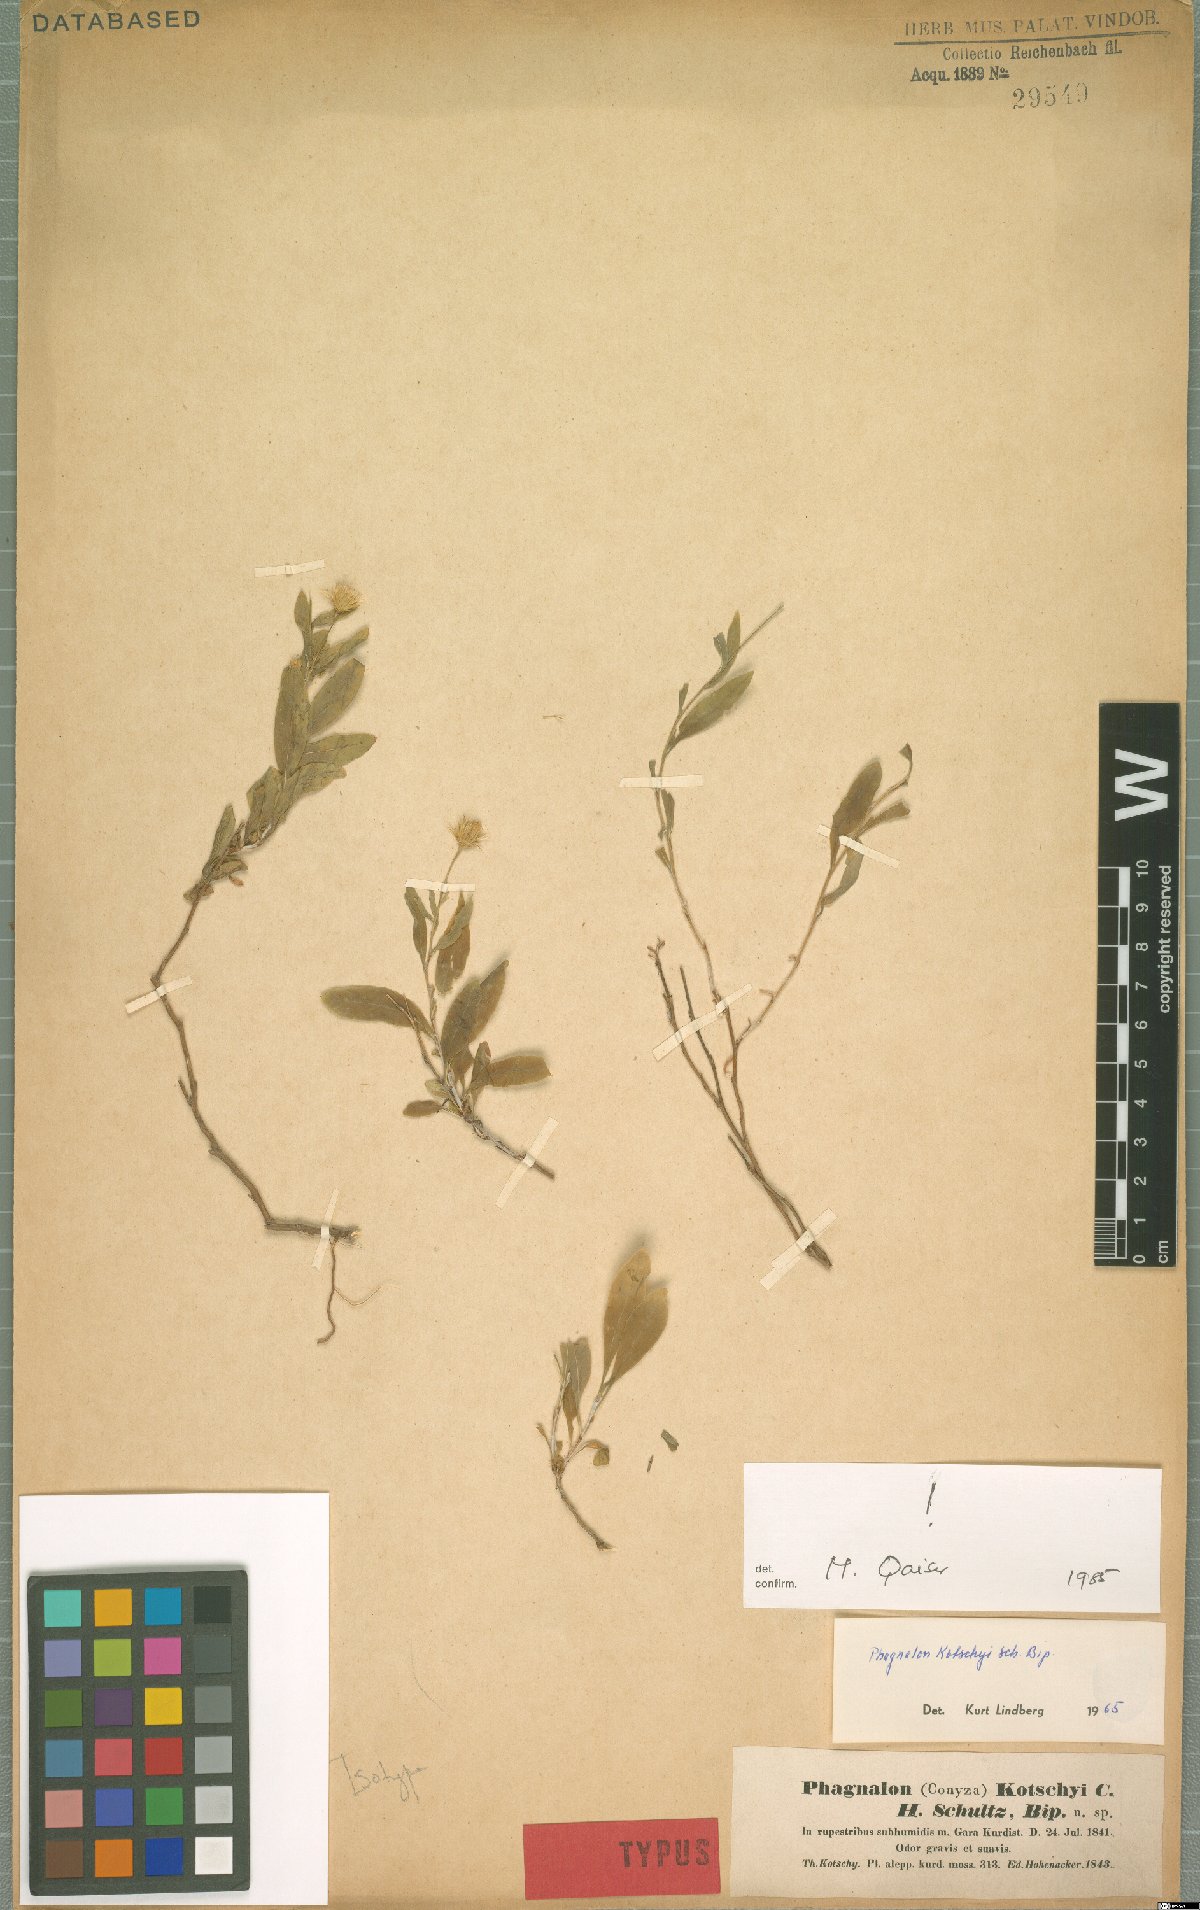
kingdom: Plantae
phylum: Tracheophyta
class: Magnoliopsida
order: Asterales
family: Asteraceae
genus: Phagnalon
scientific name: Phagnalon kotschyi
